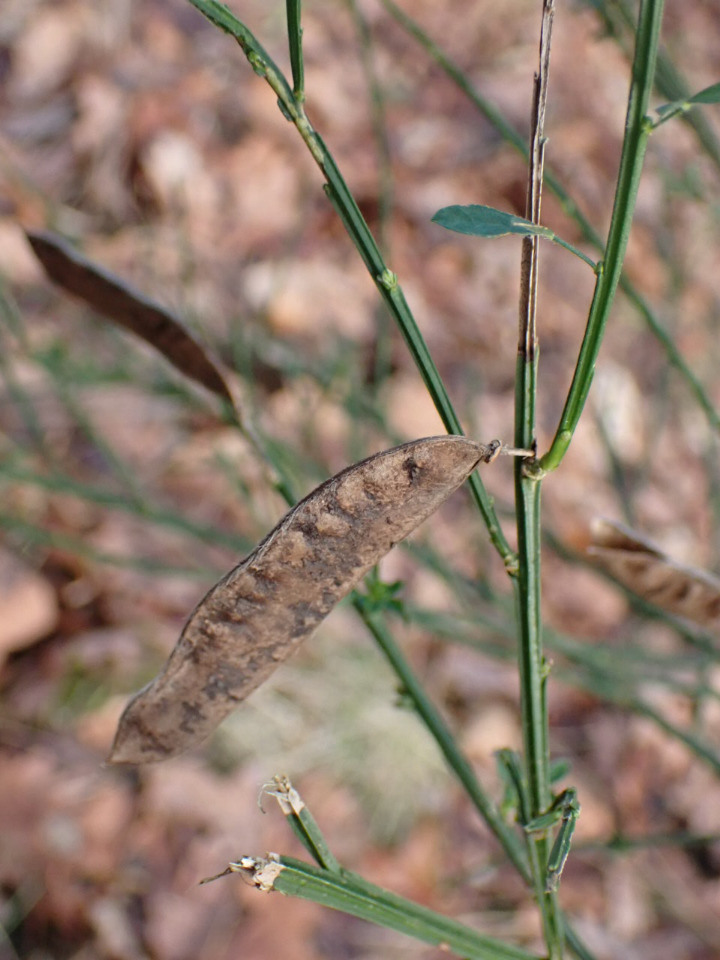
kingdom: Plantae
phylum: Tracheophyta
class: Magnoliopsida
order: Fabales
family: Fabaceae
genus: Cytisus
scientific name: Cytisus scoparius
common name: Almindelig gyvel
